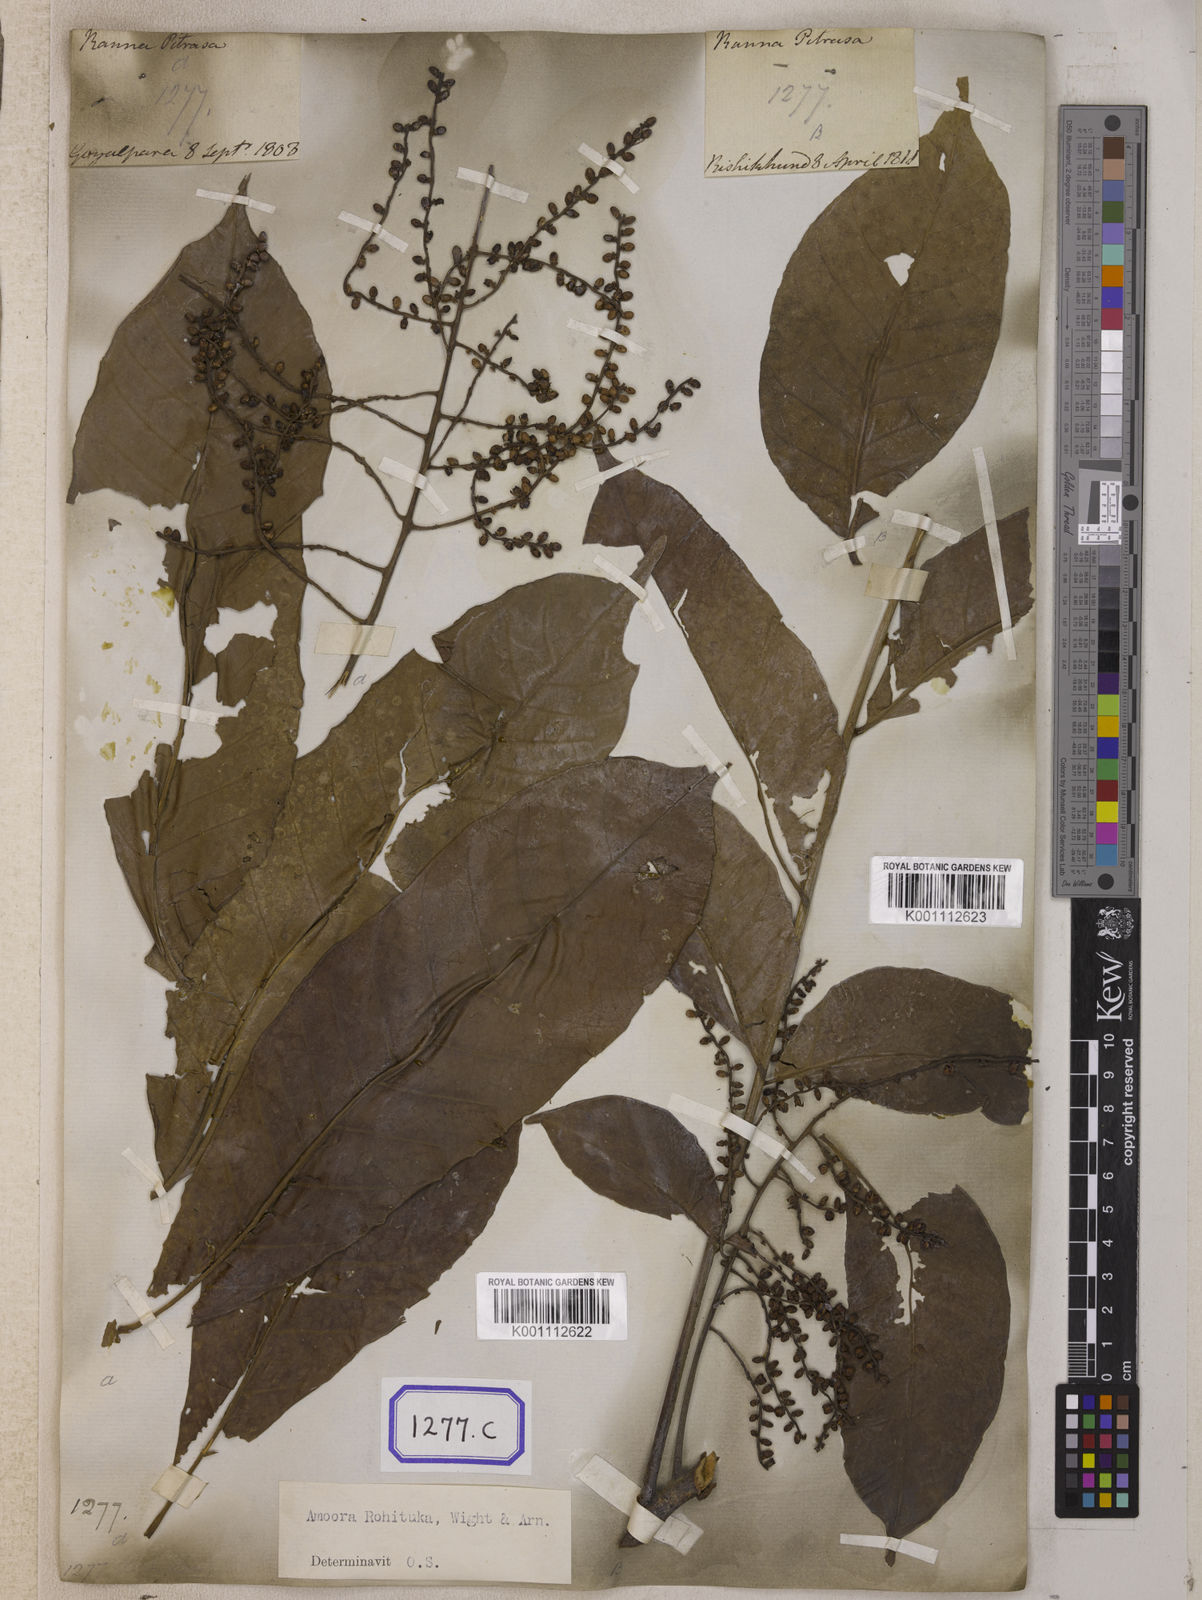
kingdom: Plantae
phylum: Tracheophyta
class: Magnoliopsida
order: Sapindales
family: Meliaceae
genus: Aphanamixis
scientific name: Aphanamixis polystachya
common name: Pithraj tree
